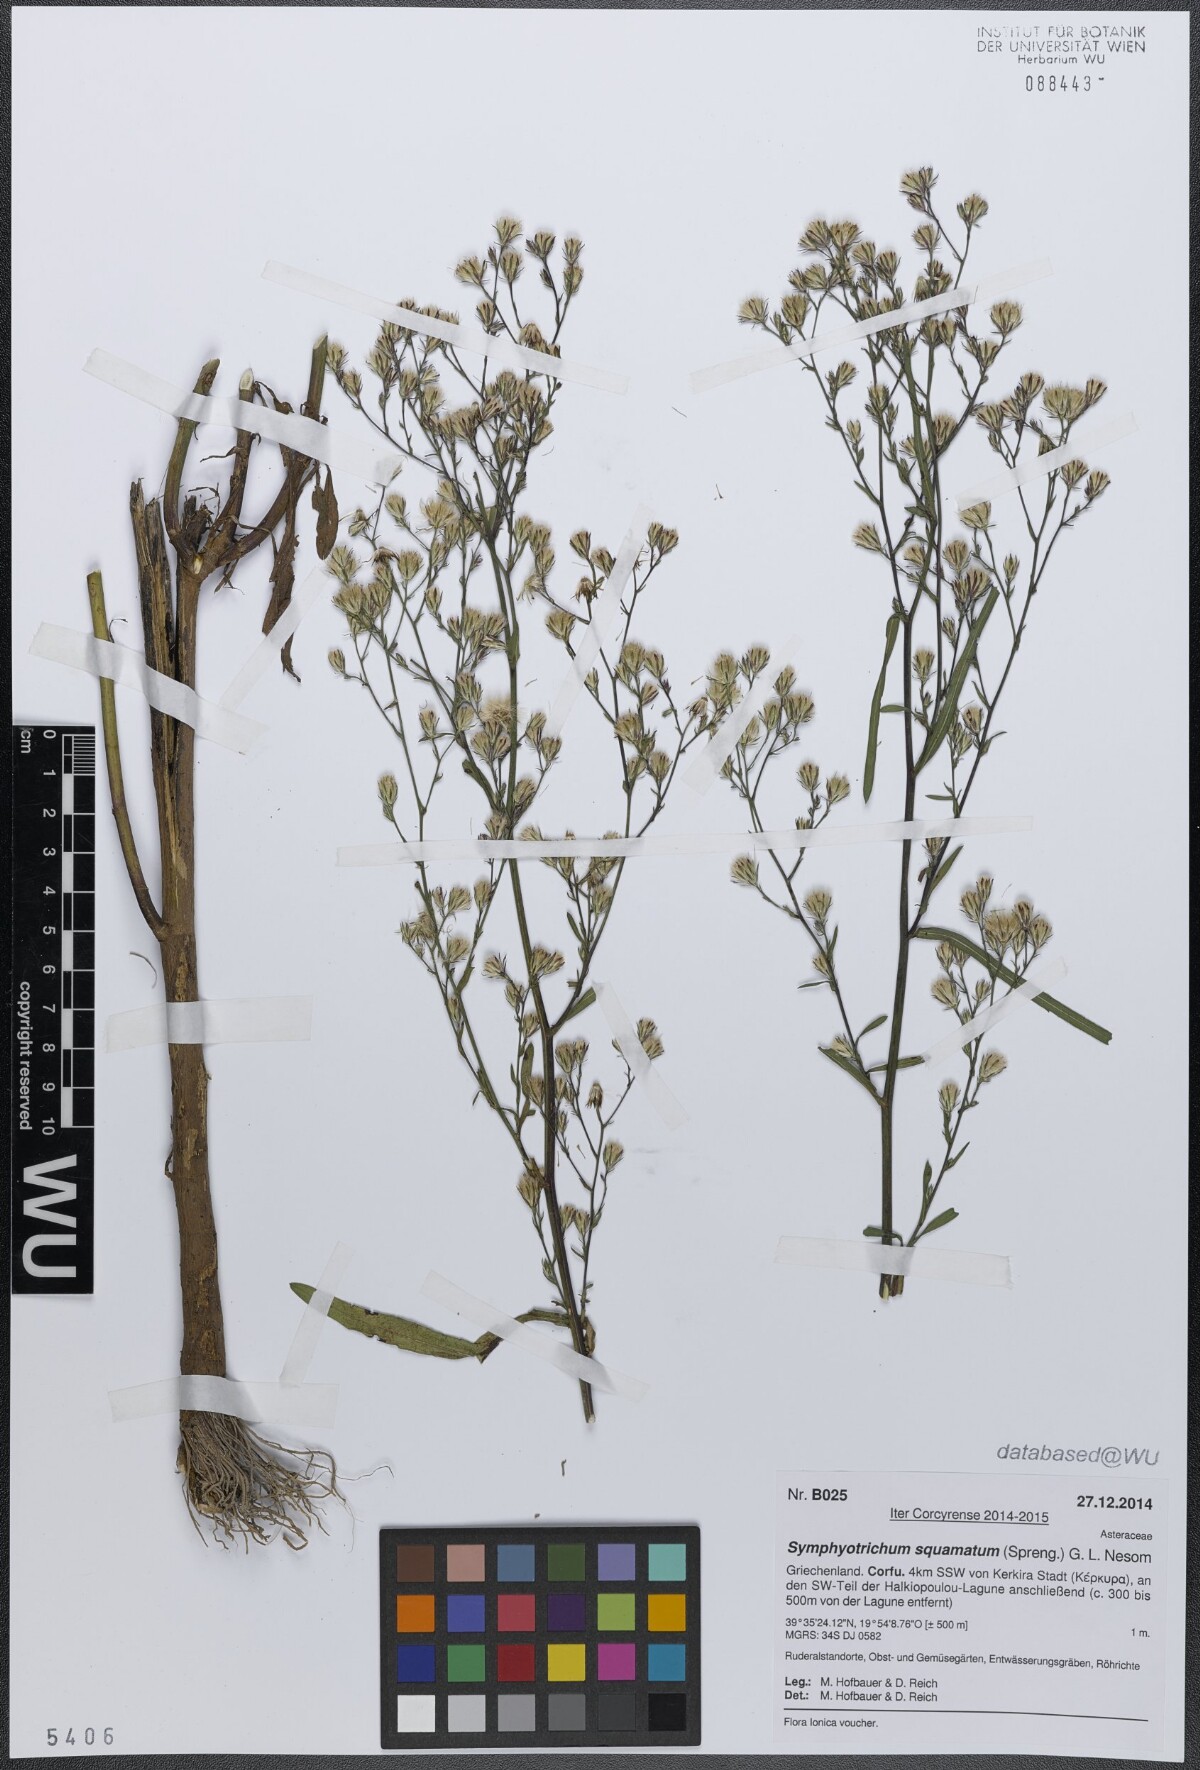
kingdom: Plantae
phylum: Tracheophyta
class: Magnoliopsida
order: Asterales
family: Asteraceae
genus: Symphyotrichum
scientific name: Symphyotrichum squamatum
